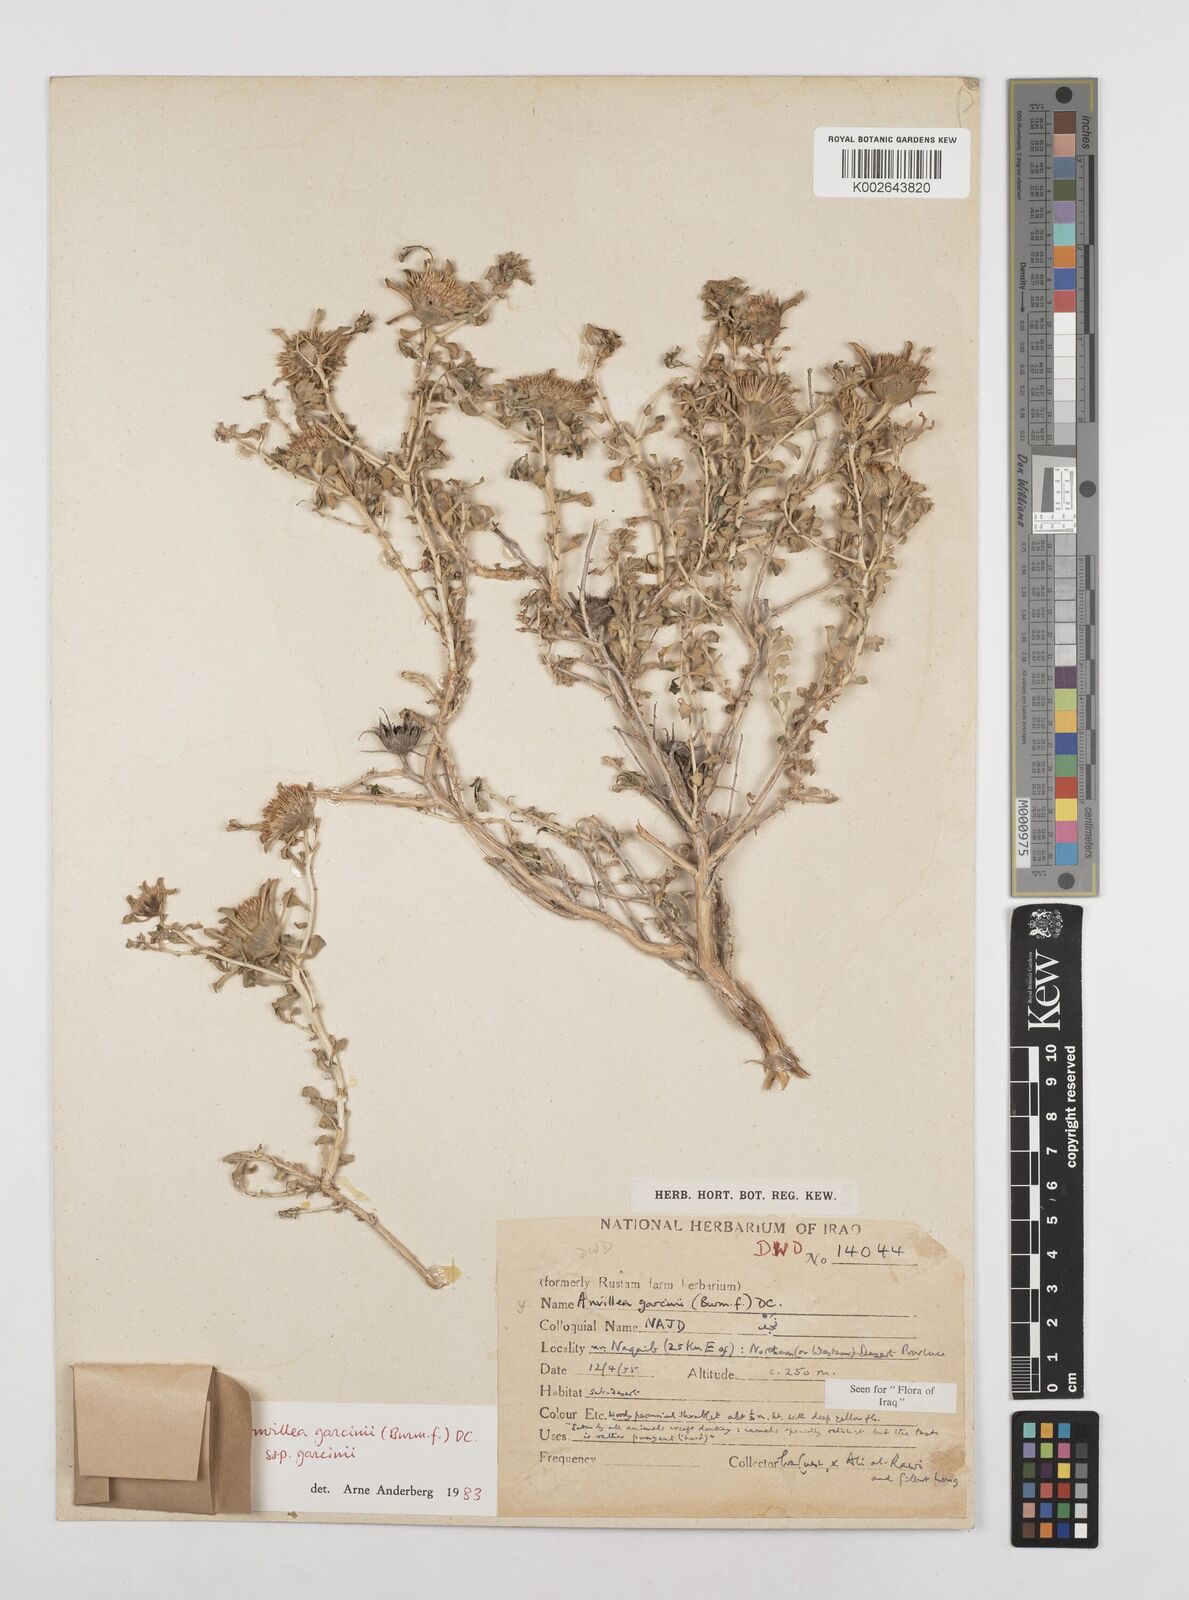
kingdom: Plantae
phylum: Tracheophyta
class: Magnoliopsida
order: Asterales
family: Asteraceae
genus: Anvillea
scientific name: Anvillea
